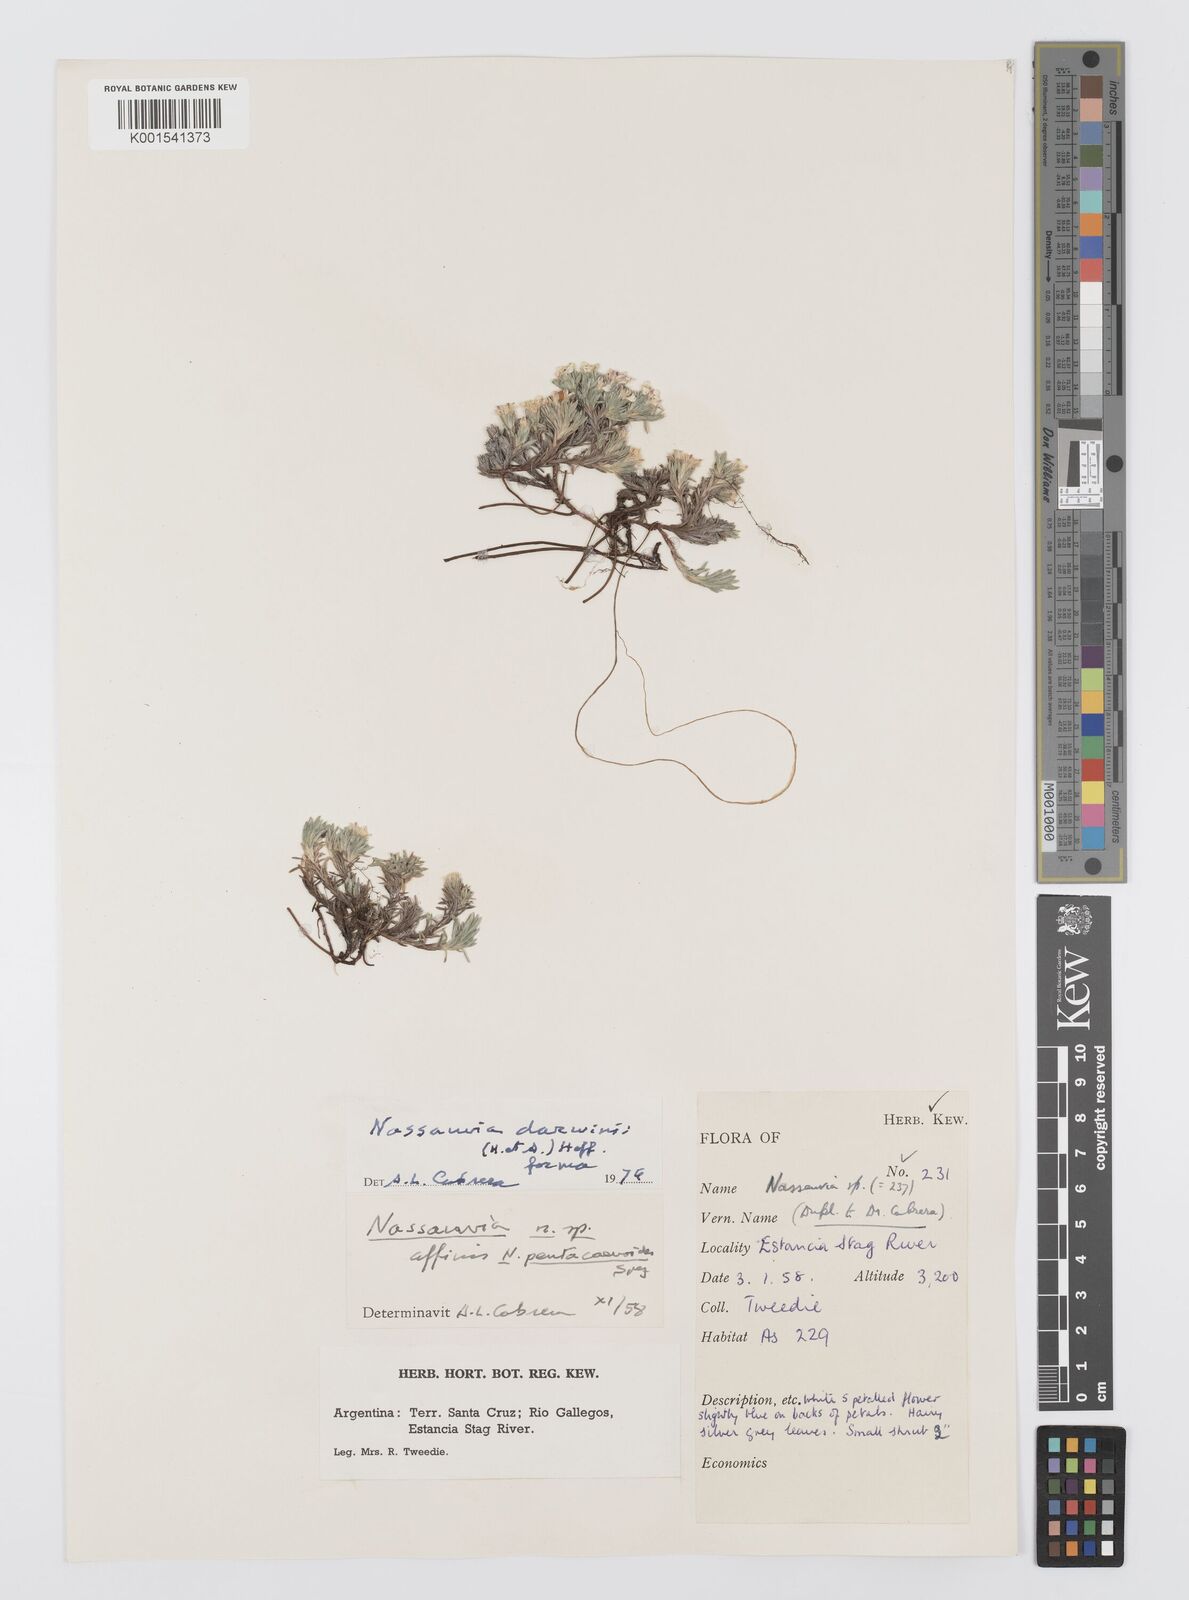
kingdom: Plantae
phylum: Tracheophyta
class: Magnoliopsida
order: Asterales
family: Asteraceae
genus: Nassauvia
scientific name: Nassauvia darwinii
